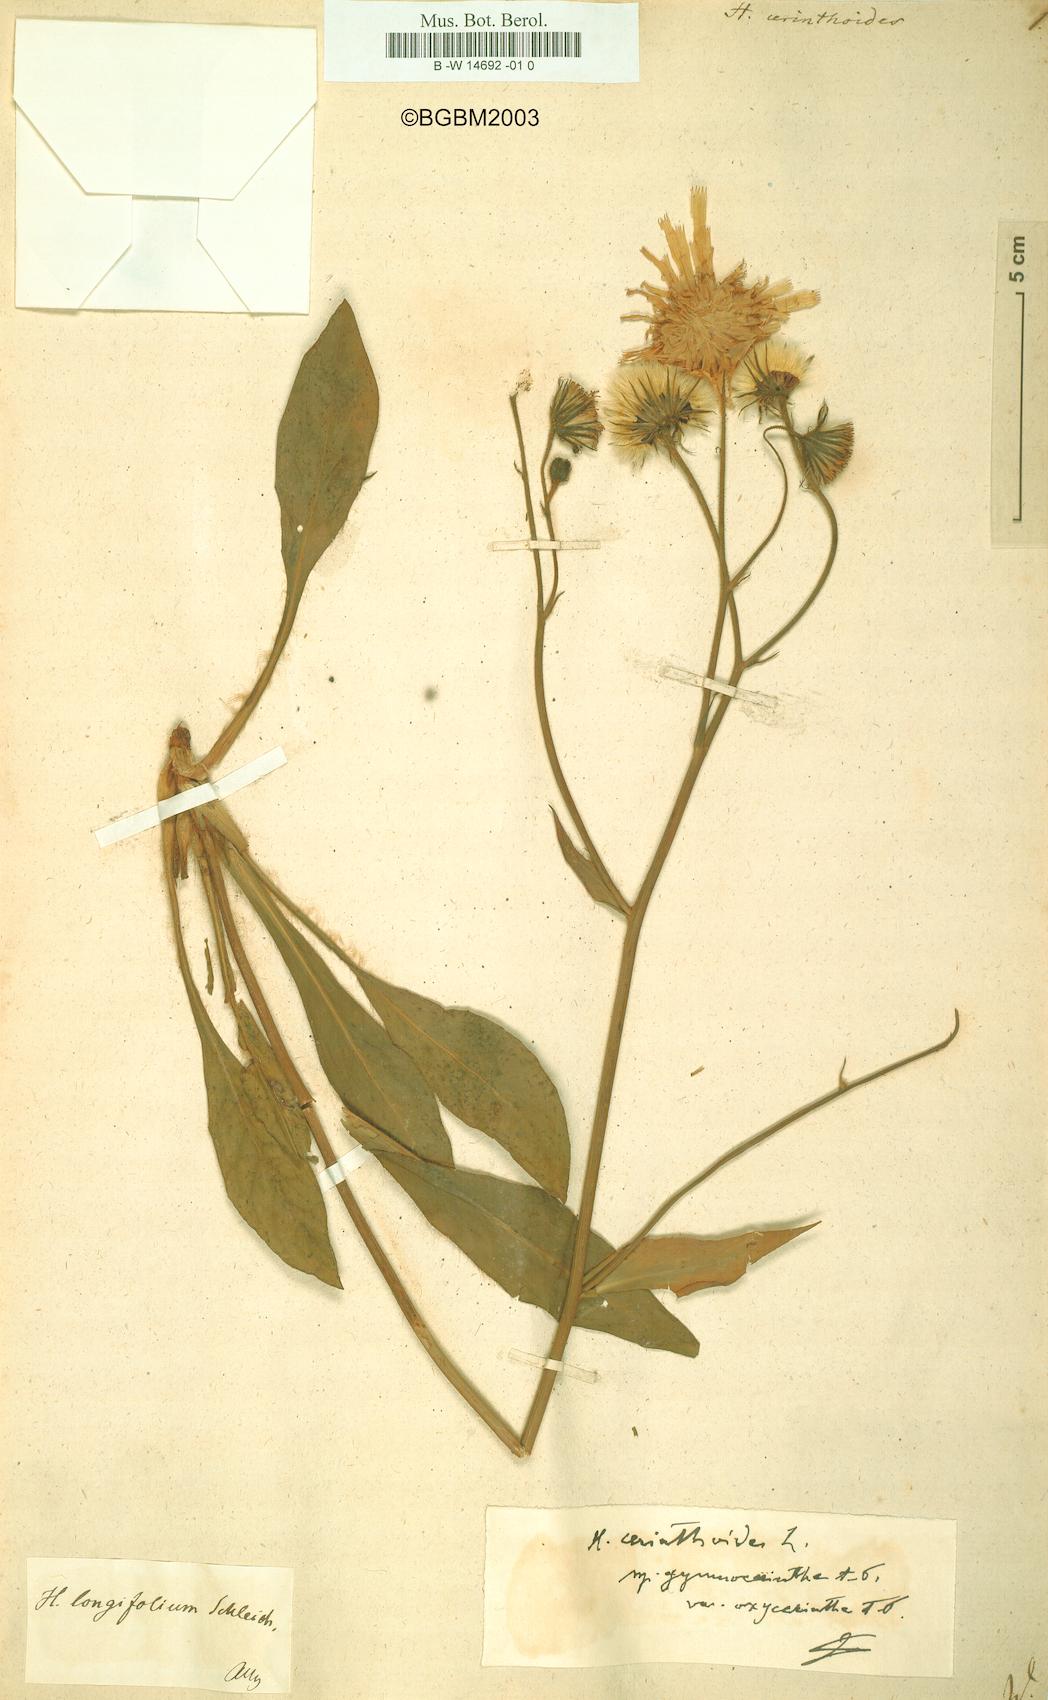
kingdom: Plantae
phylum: Tracheophyta
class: Magnoliopsida
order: Asterales
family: Asteraceae
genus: Hieracium
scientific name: Hieracium cerinthoides
